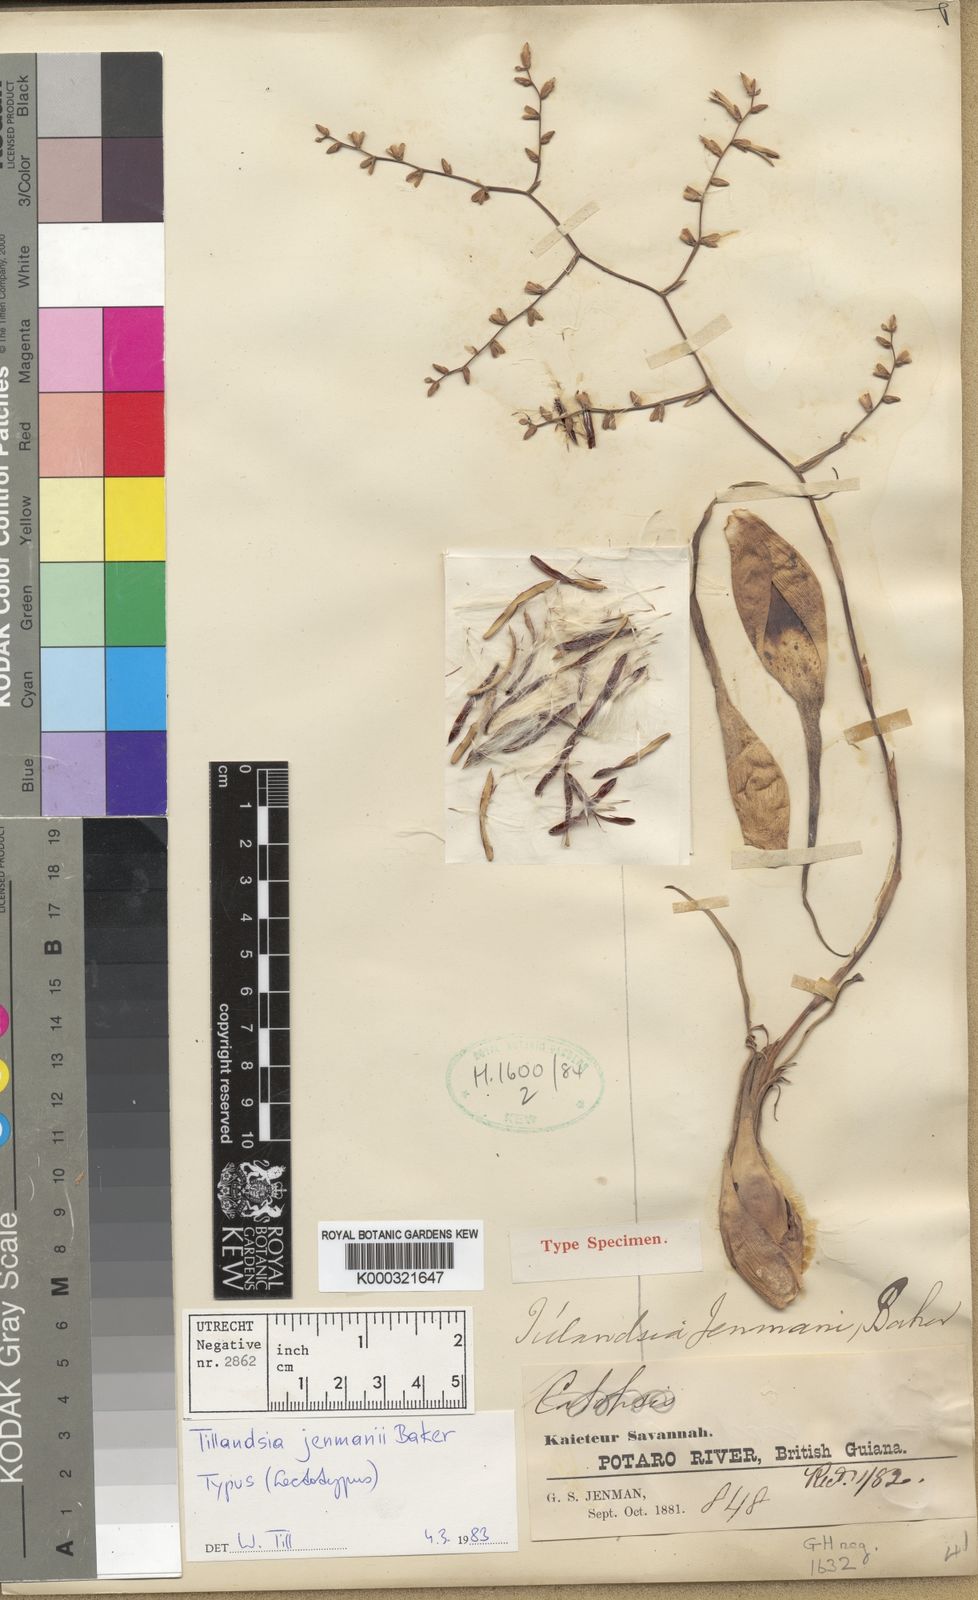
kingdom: Plantae
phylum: Tracheophyta
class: Liliopsida
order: Poales
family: Bromeliaceae
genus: Racinaea
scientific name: Racinaea jenmanii
